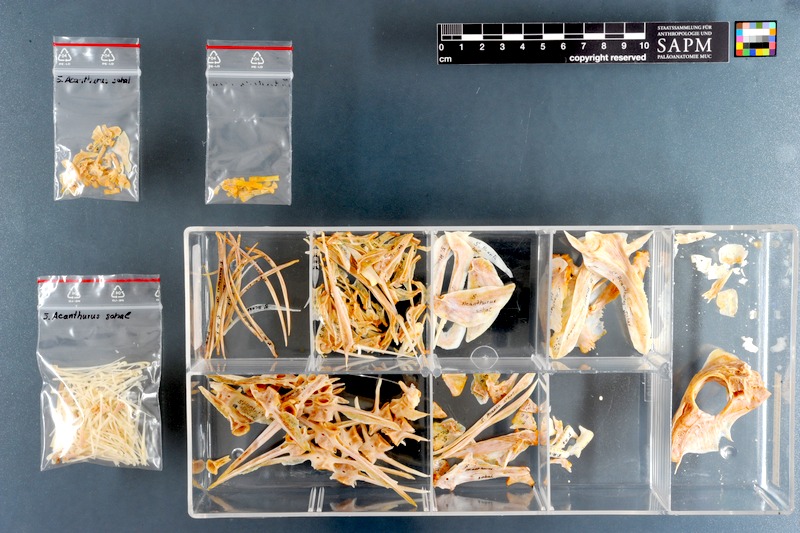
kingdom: Animalia
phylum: Chordata
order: Perciformes
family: Acanthuridae
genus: Acanthurus
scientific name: Acanthurus sohal
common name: Red sea surgeonfish
